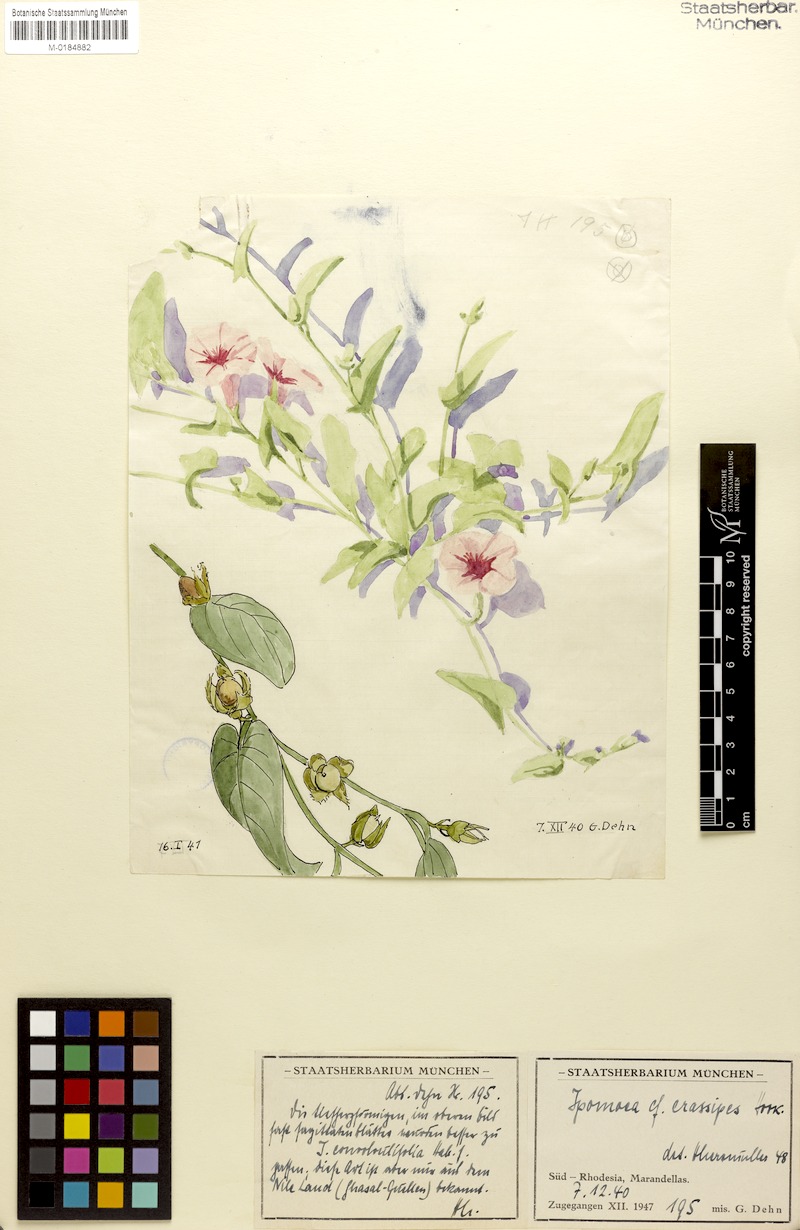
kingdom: Plantae
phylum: Tracheophyta
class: Magnoliopsida
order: Solanales
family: Convolvulaceae
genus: Ipomoea
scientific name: Ipomoea crassipes
